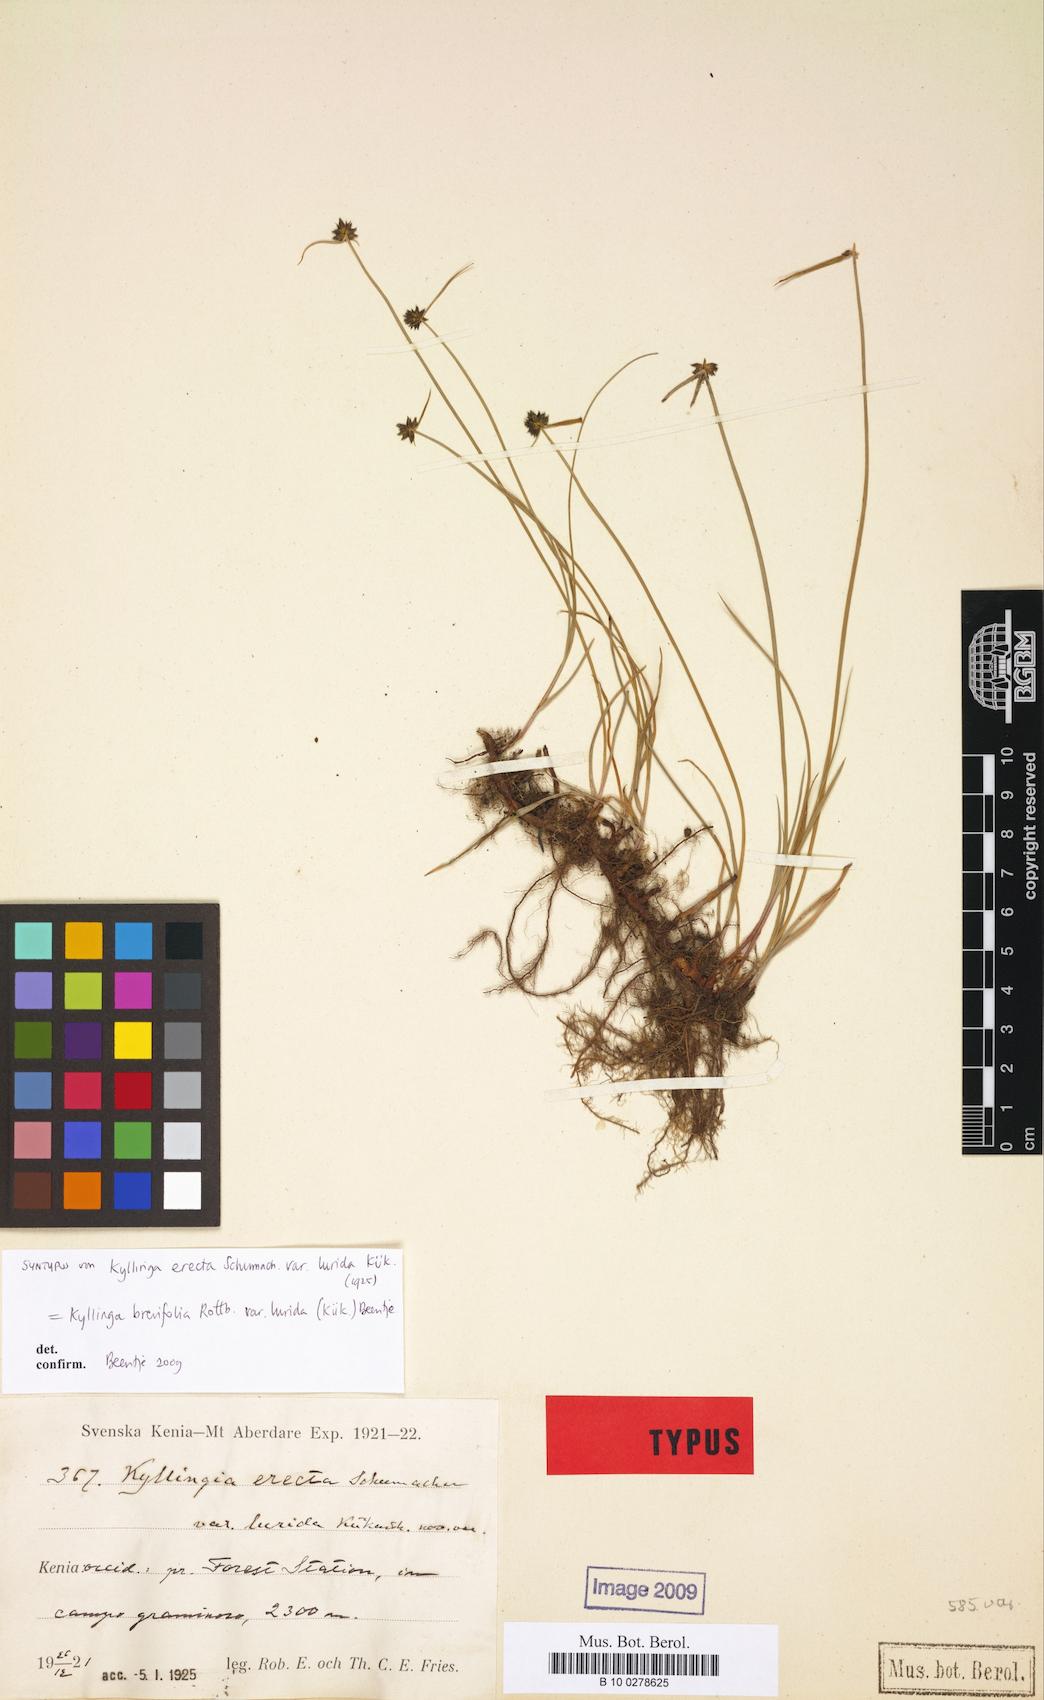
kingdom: Plantae
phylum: Tracheophyta
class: Liliopsida
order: Poales
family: Cyperaceae
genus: Cyperus
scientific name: Cyperus nigriceps
